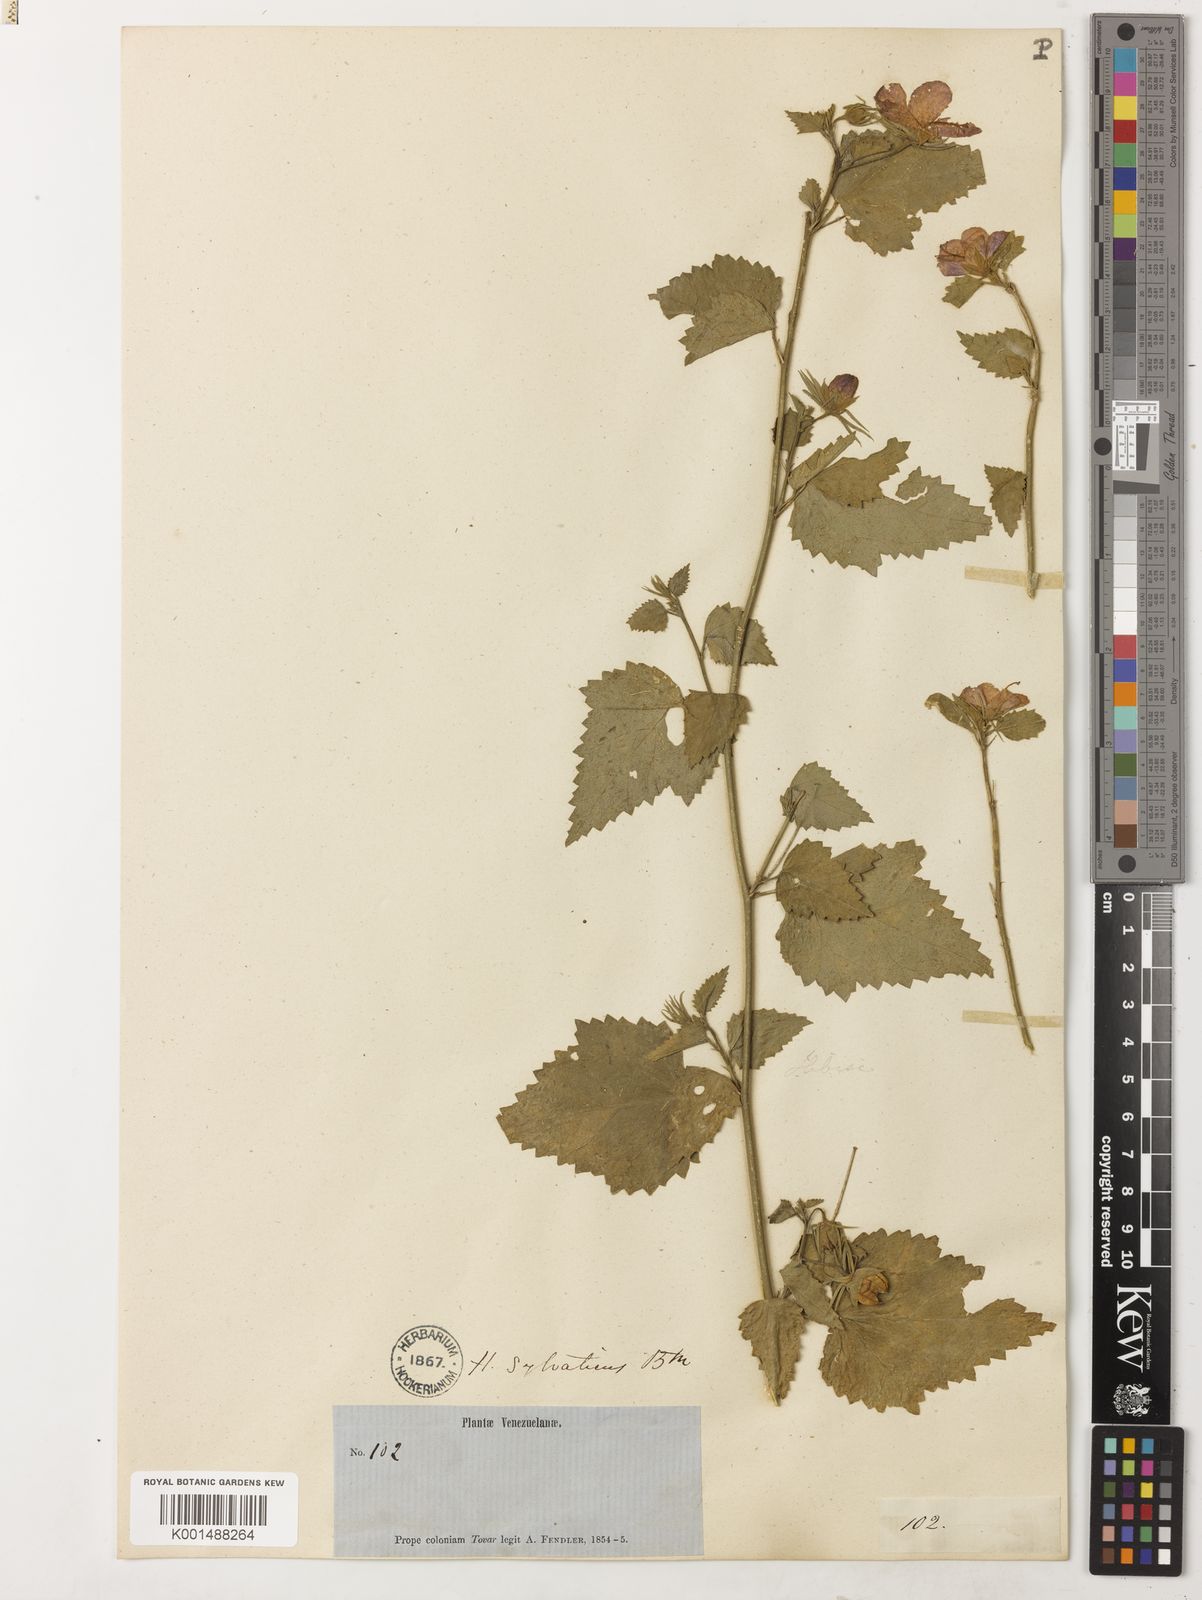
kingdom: Plantae
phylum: Tracheophyta
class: Magnoliopsida
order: Malvales
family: Malvaceae
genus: Hibiscus
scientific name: Hibiscus phoeniceus
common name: Brazilian rosemallow
